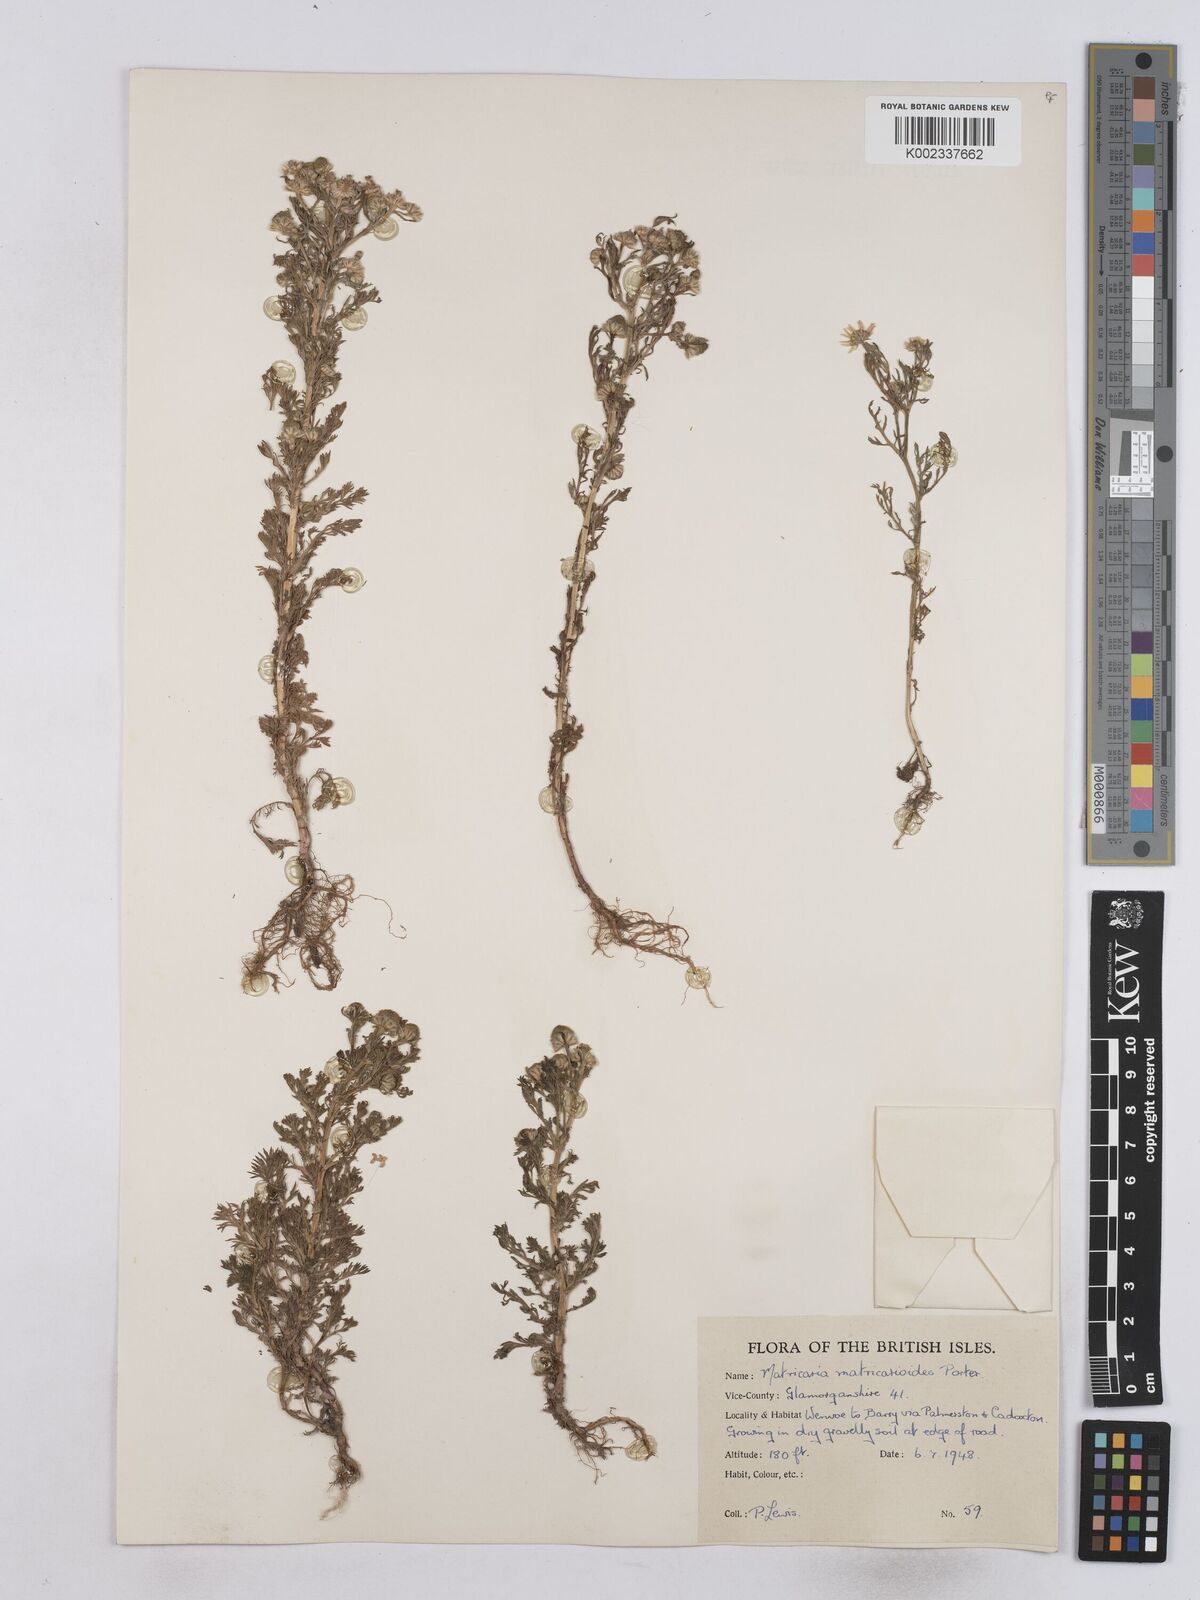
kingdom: Plantae
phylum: Tracheophyta
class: Magnoliopsida
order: Asterales
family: Asteraceae
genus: Matricaria
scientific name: Matricaria discoidea
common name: Disc mayweed
